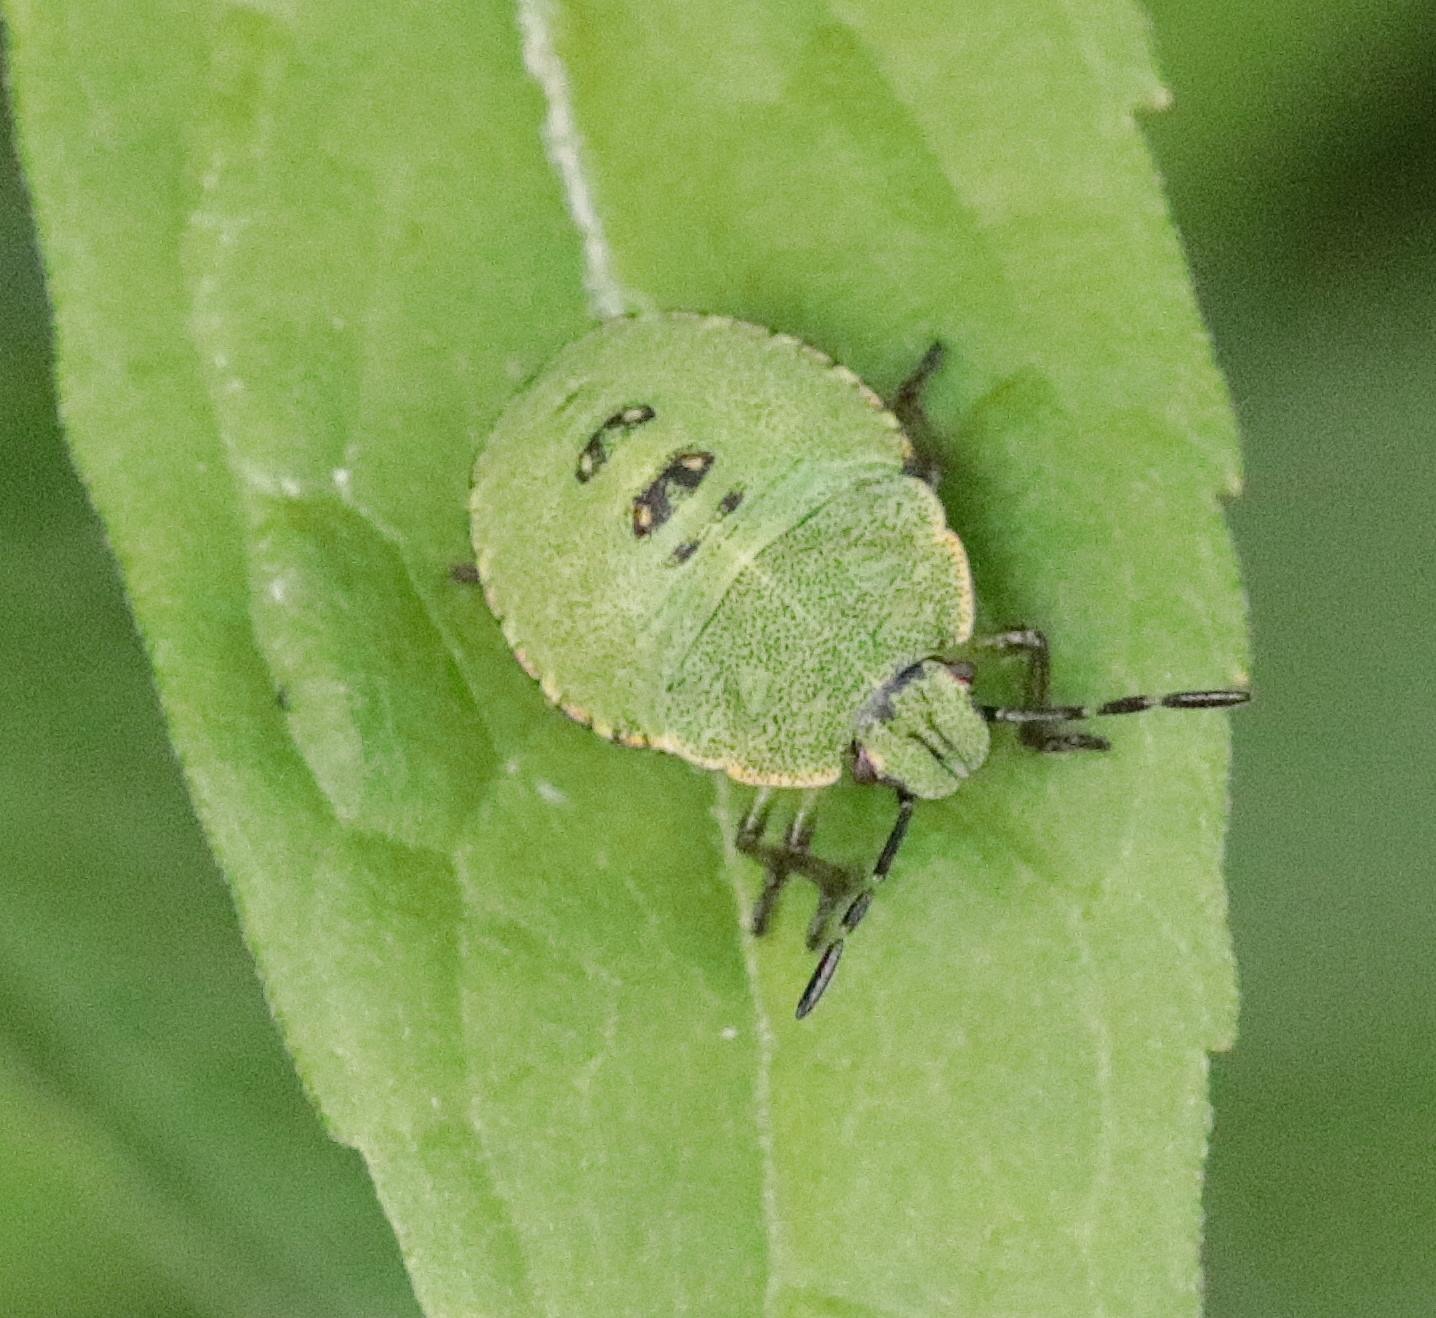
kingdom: Animalia
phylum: Arthropoda
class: Insecta
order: Hemiptera
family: Pentatomidae
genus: Palomena
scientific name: Palomena prasina
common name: Grøn bredtæge
